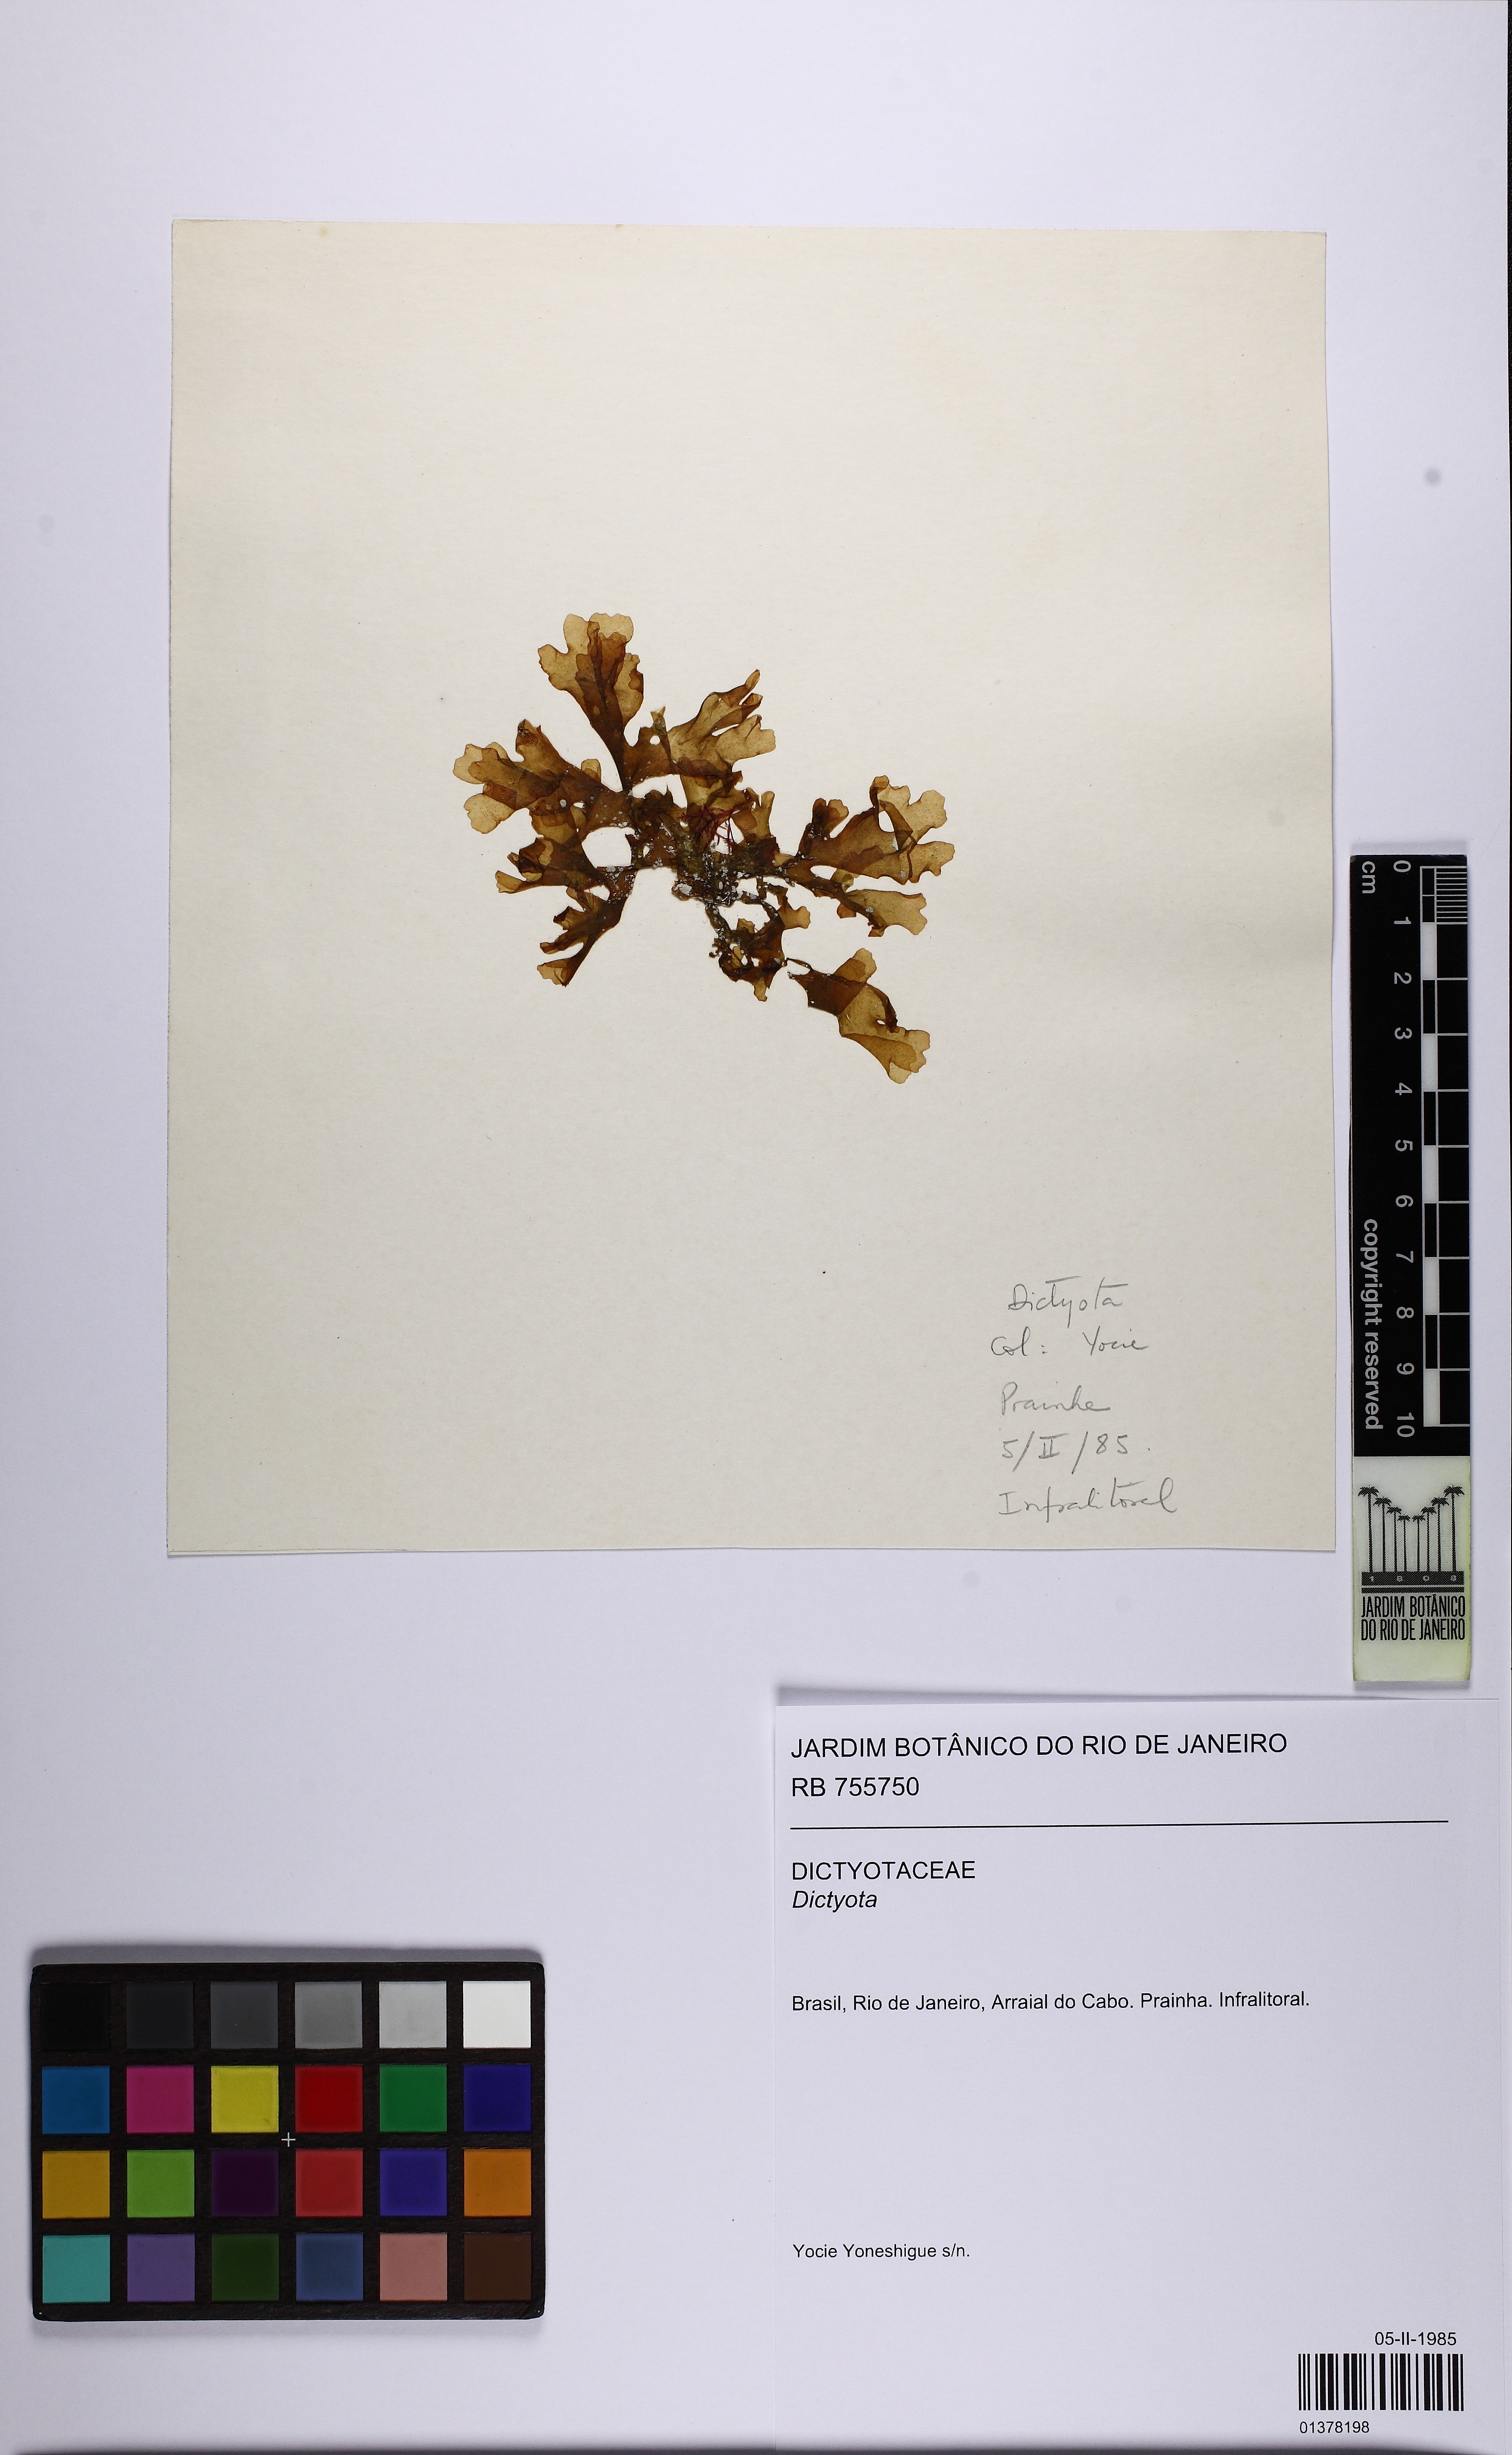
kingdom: Chromista
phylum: Ochrophyta
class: Phaeophyceae
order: Dictyotales
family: Dictyotaceae
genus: Dictyota
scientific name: Dictyota
